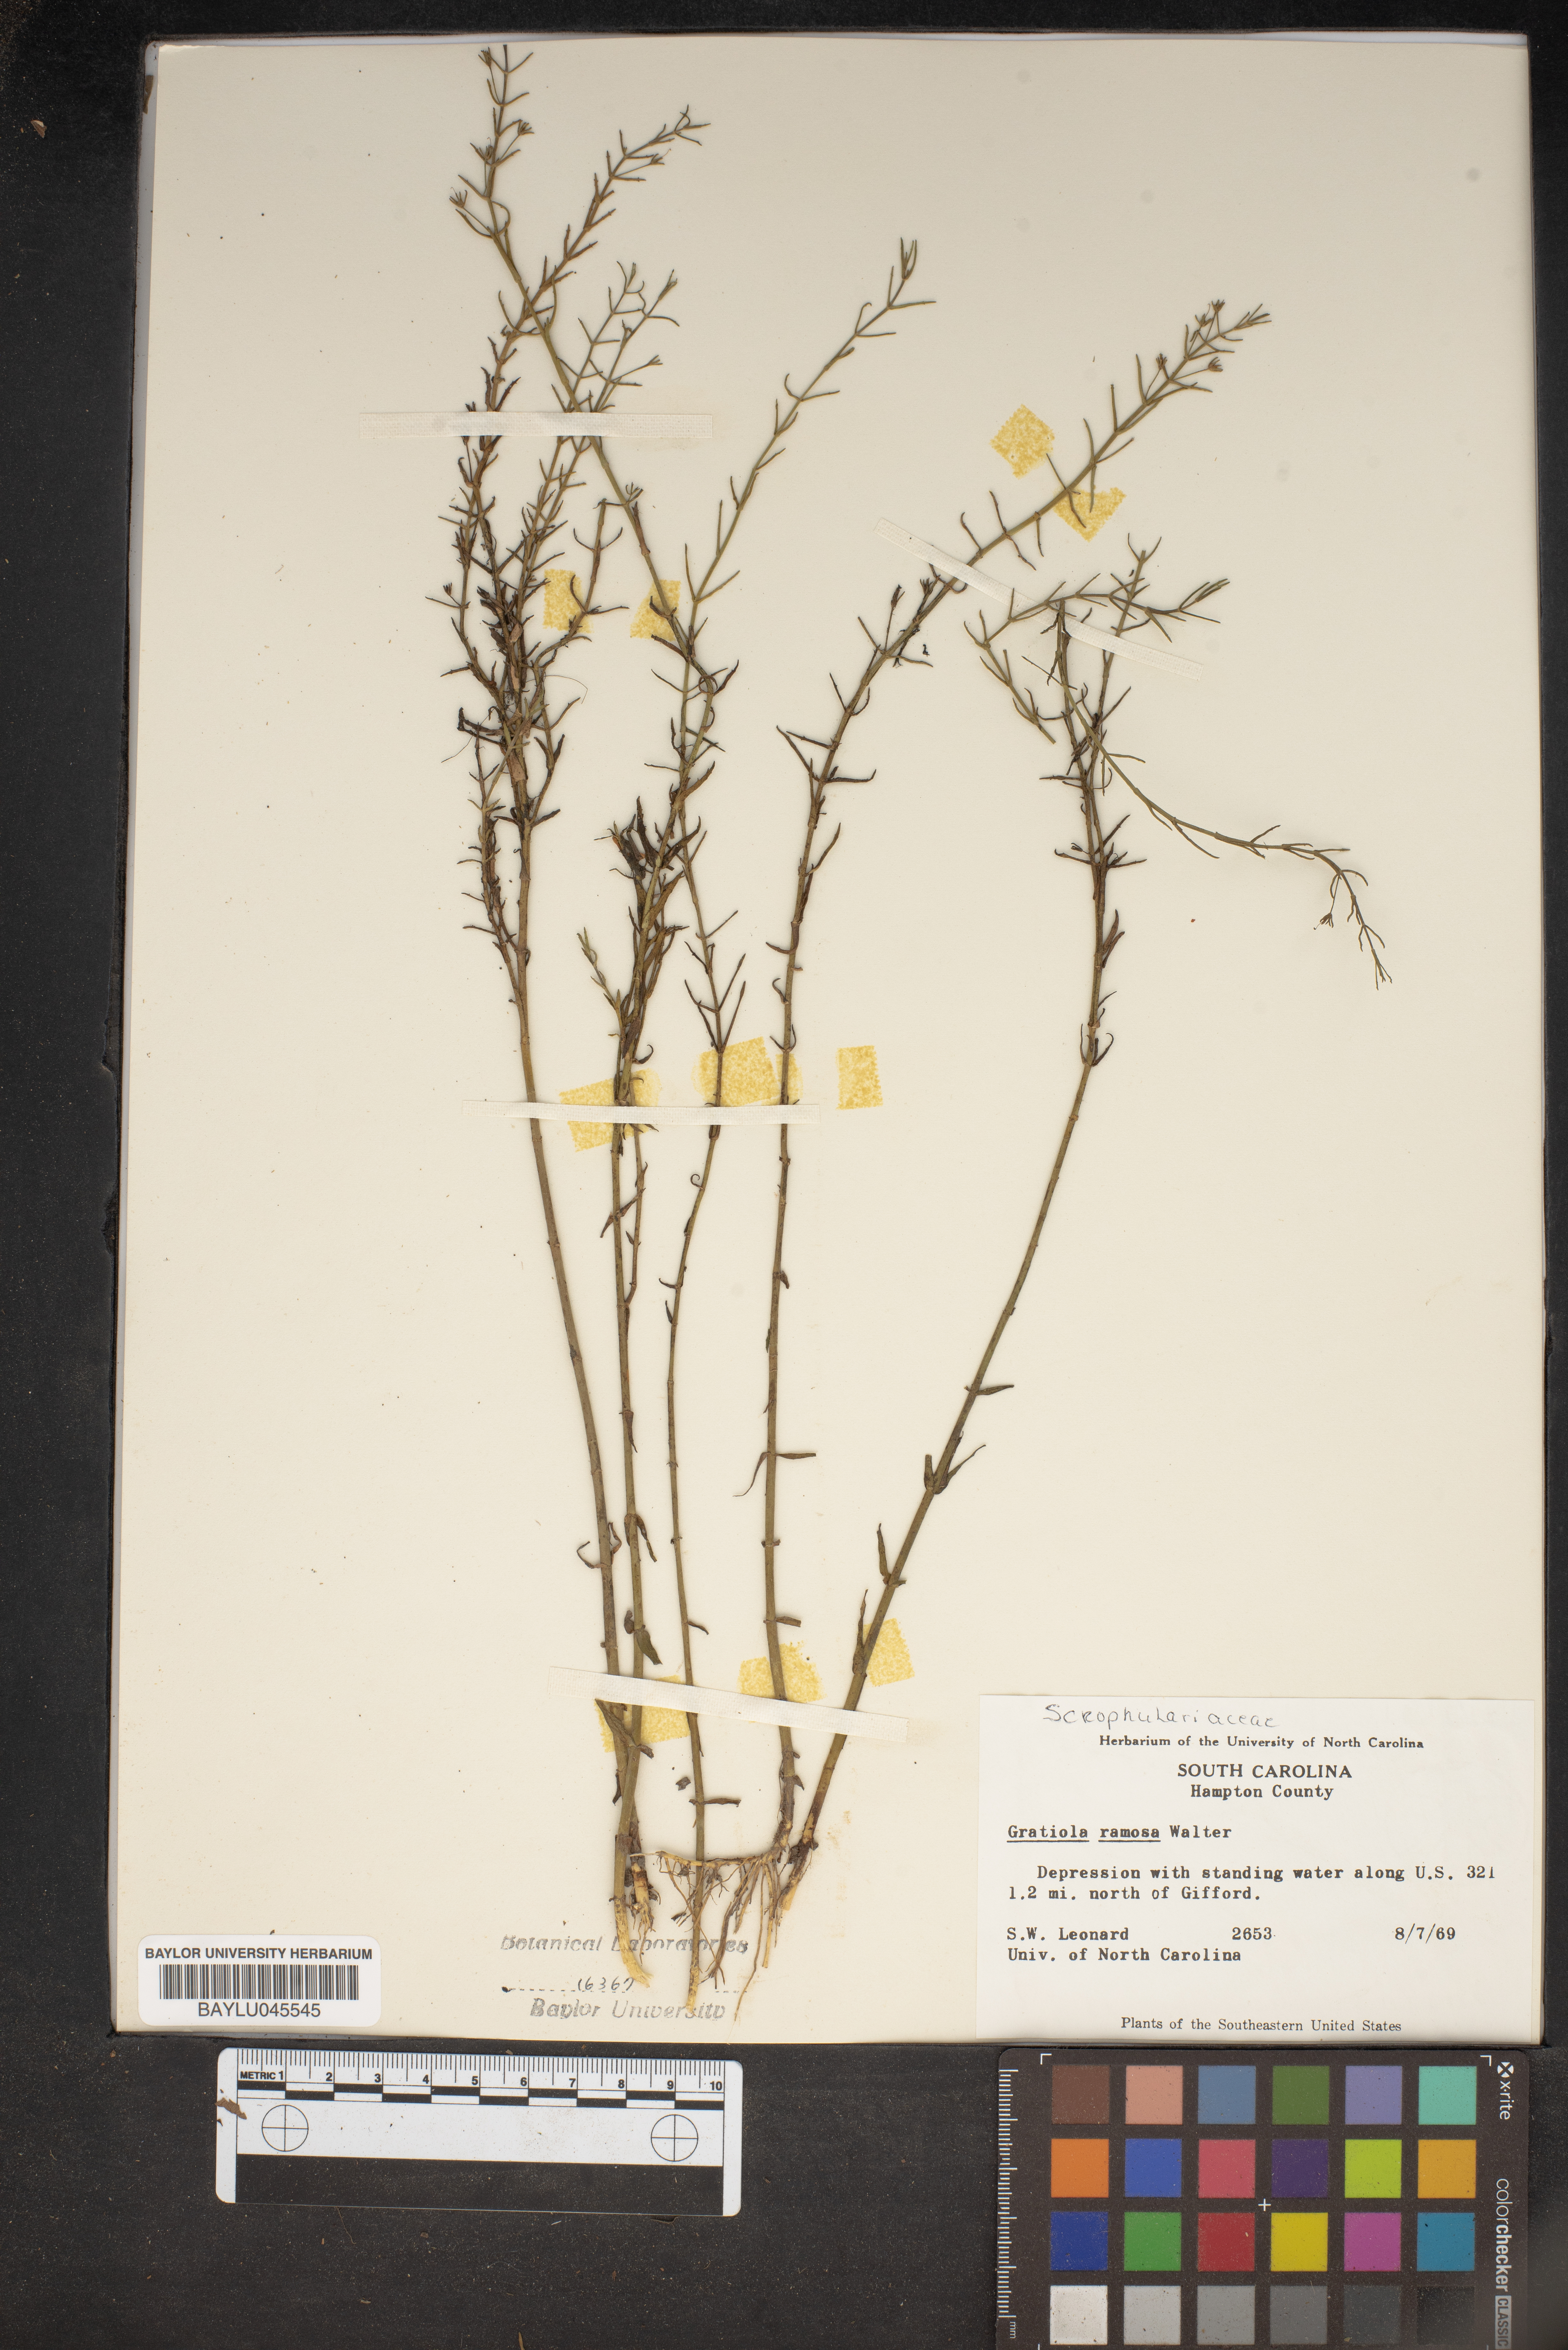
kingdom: Plantae
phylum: Tracheophyta
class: Magnoliopsida
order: Lamiales
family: Plantaginaceae
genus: Gratiola
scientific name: Gratiola ramosa
